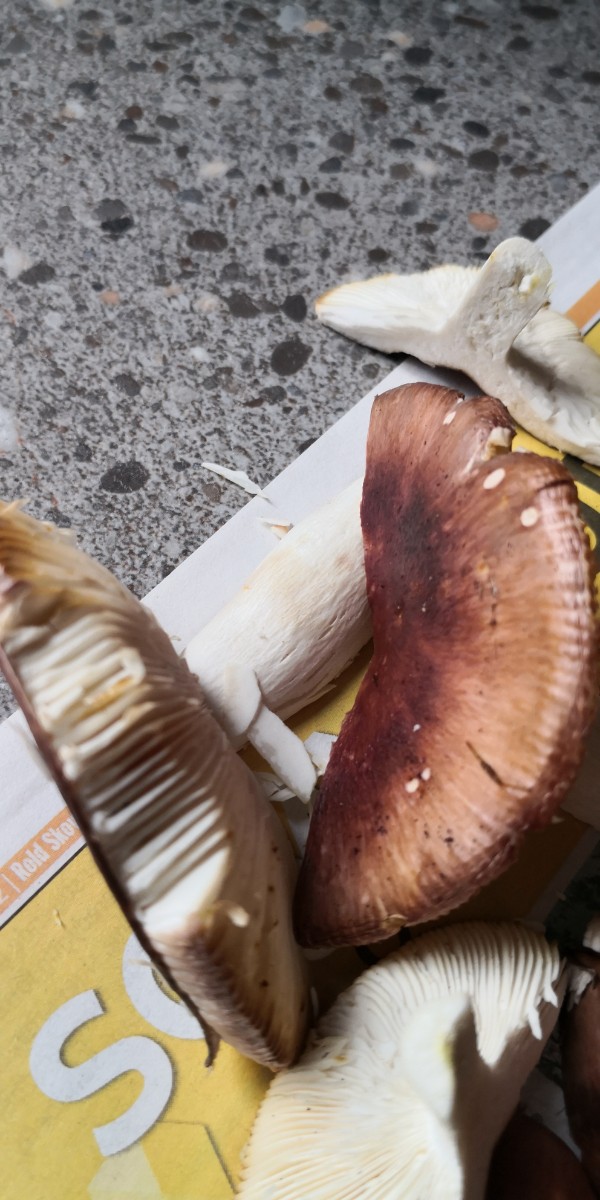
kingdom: Fungi
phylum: Basidiomycota
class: Agaricomycetes
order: Russulales
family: Russulaceae
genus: Russula
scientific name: Russula vesca
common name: spiselig skørhat
